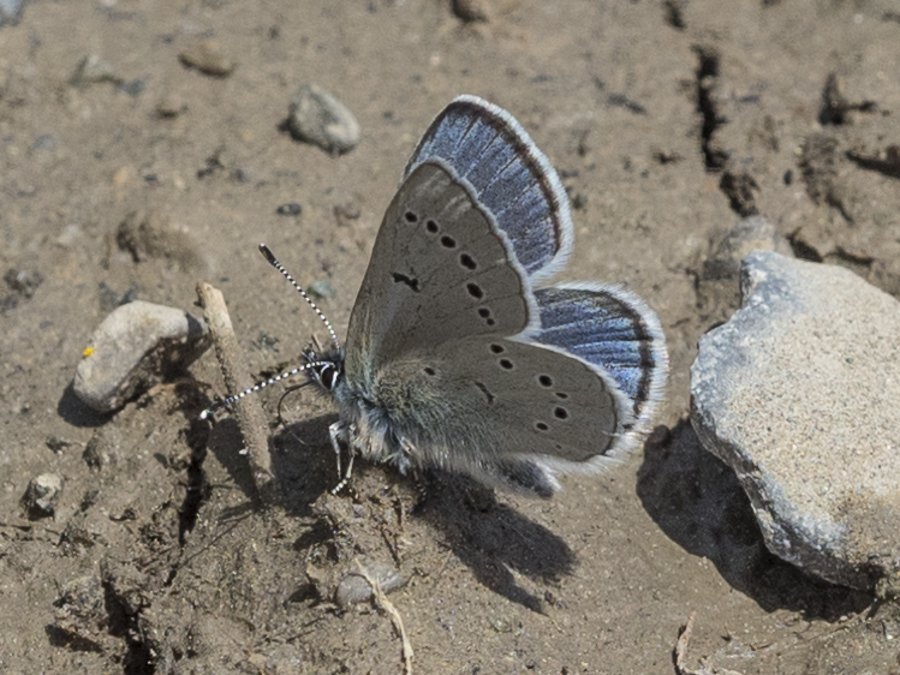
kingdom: Animalia
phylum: Arthropoda
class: Insecta
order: Lepidoptera
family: Lycaenidae
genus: Glaucopsyche
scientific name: Glaucopsyche lygdamus
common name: Silvery Blue
